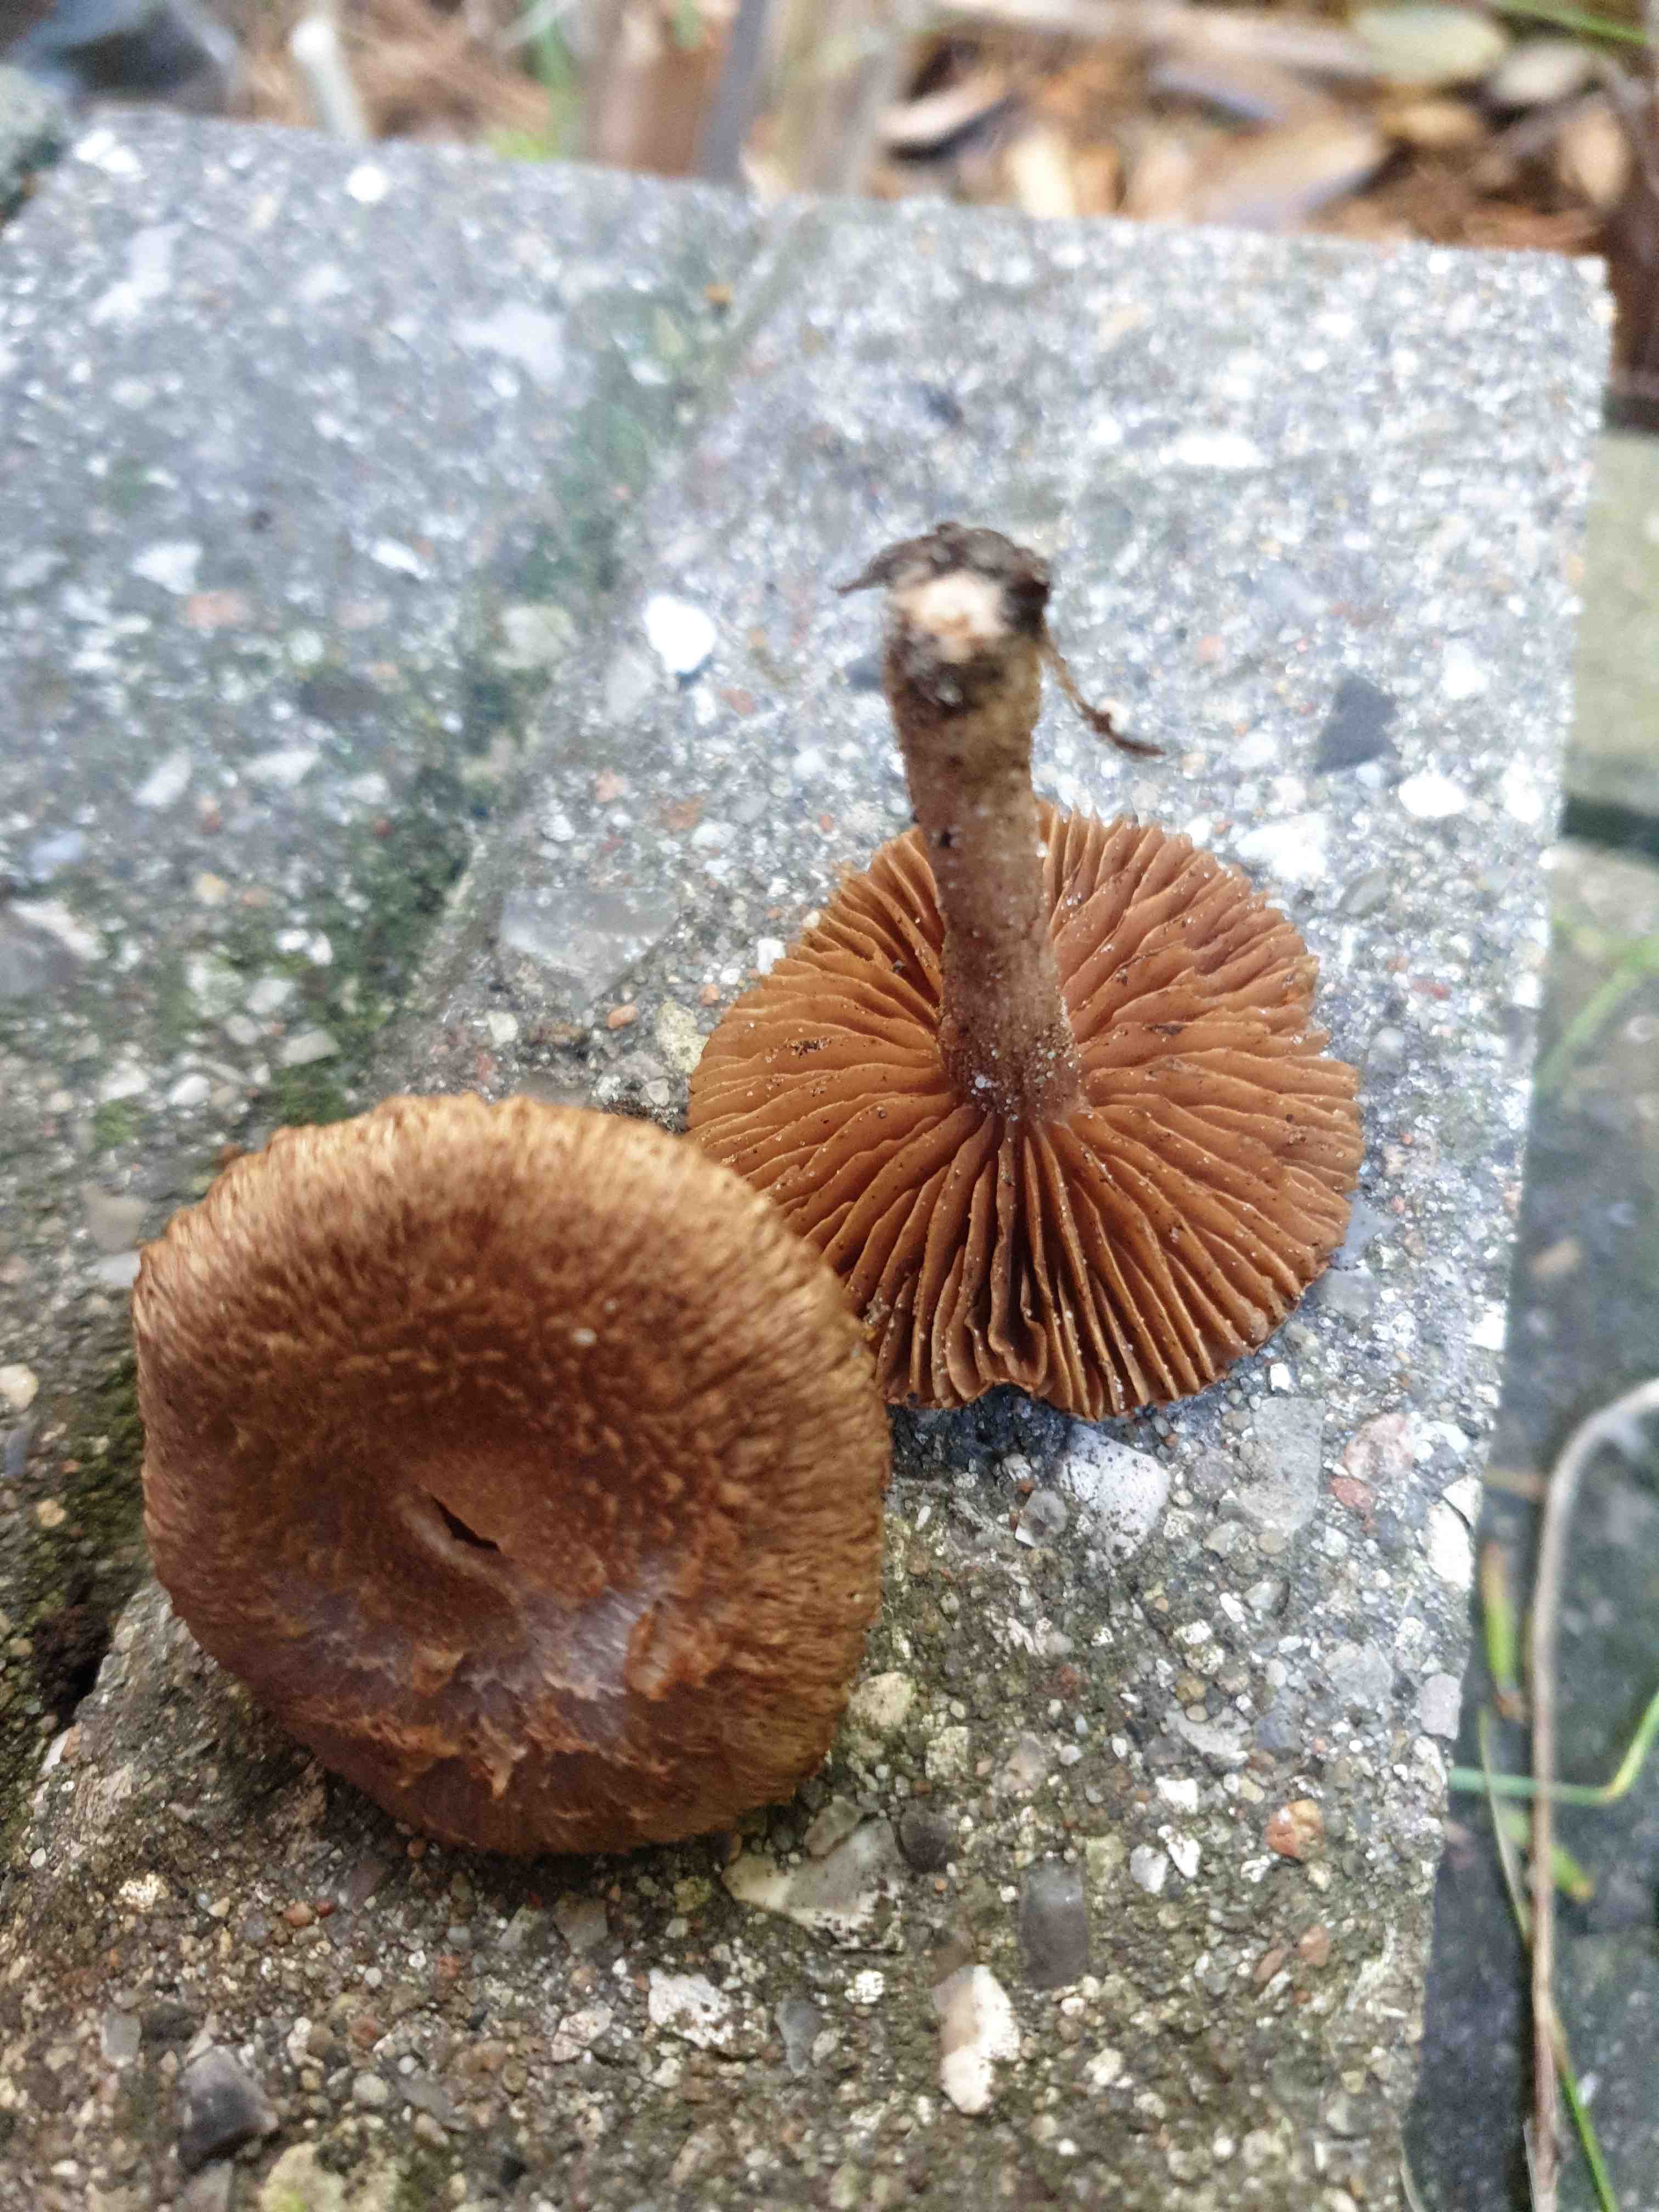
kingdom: Fungi
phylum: Basidiomycota
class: Agaricomycetes
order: Agaricales
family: Inocybaceae
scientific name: Inocybaceae
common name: trævlhatfamilien
